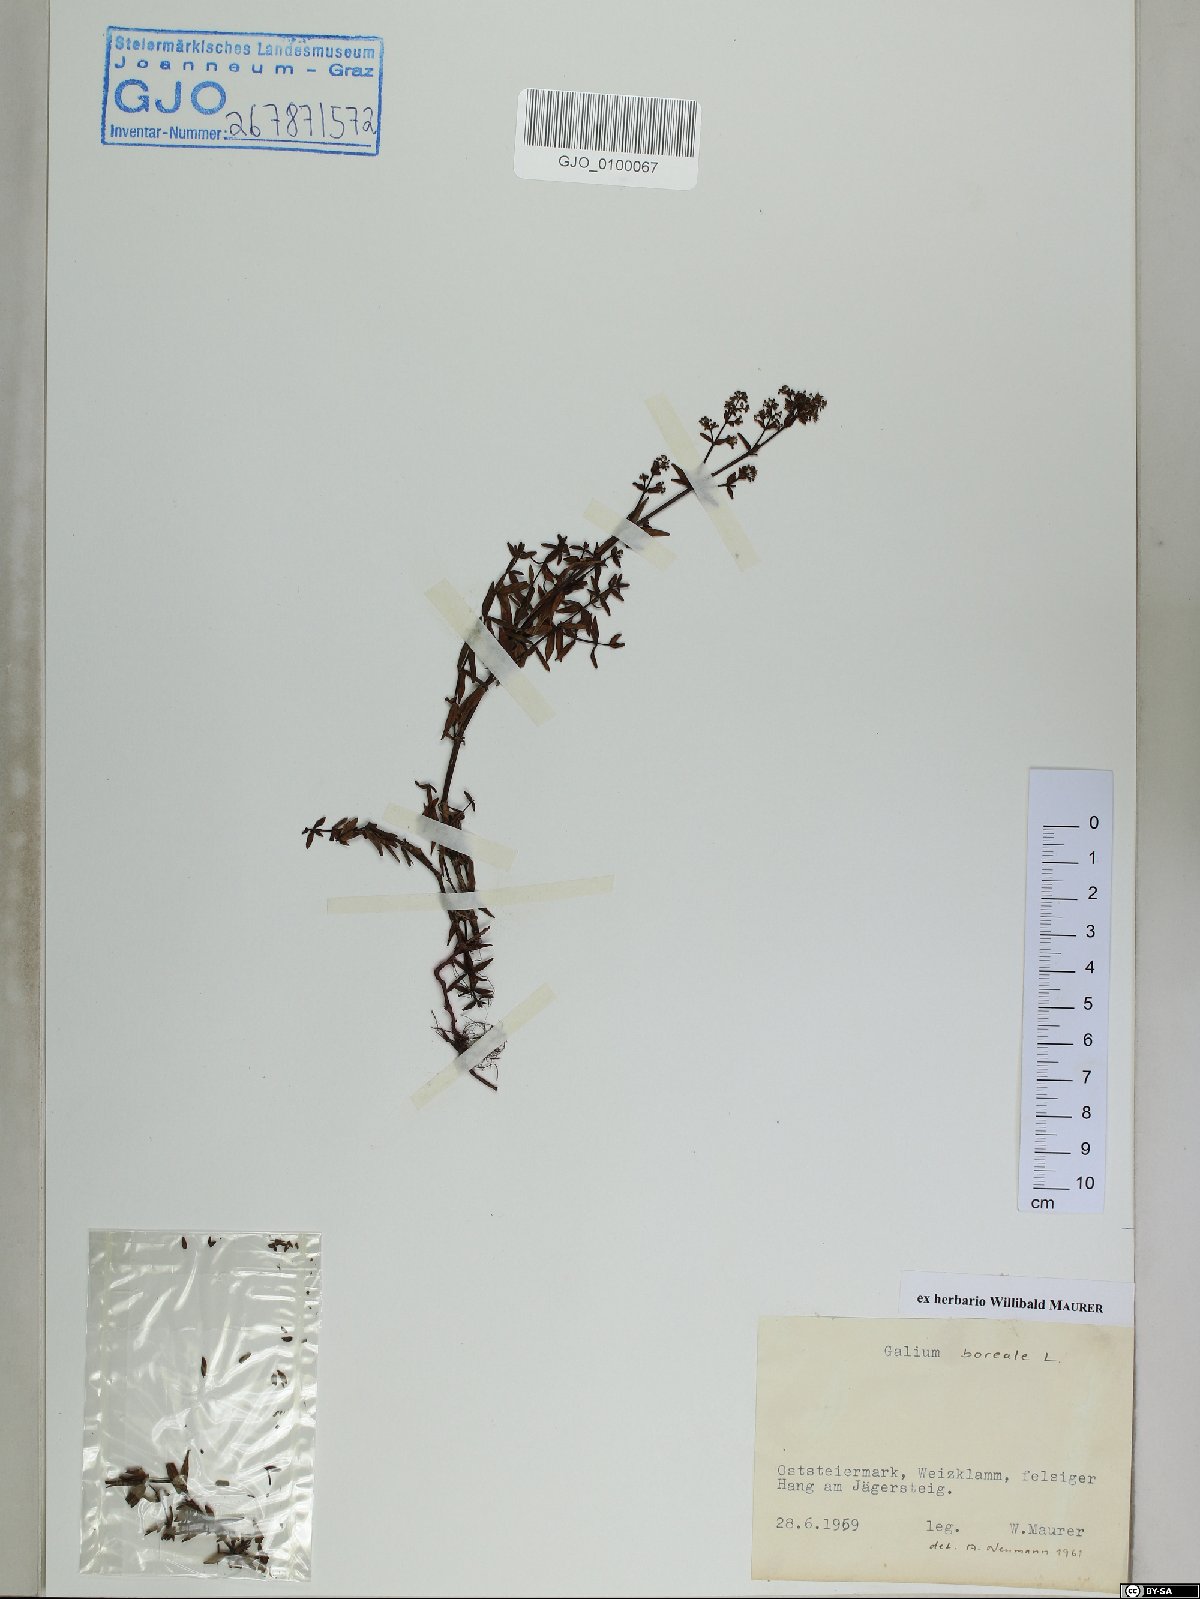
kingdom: Plantae
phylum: Tracheophyta
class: Magnoliopsida
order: Gentianales
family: Rubiaceae
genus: Galium
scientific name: Galium boreale
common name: Northern bedstraw
